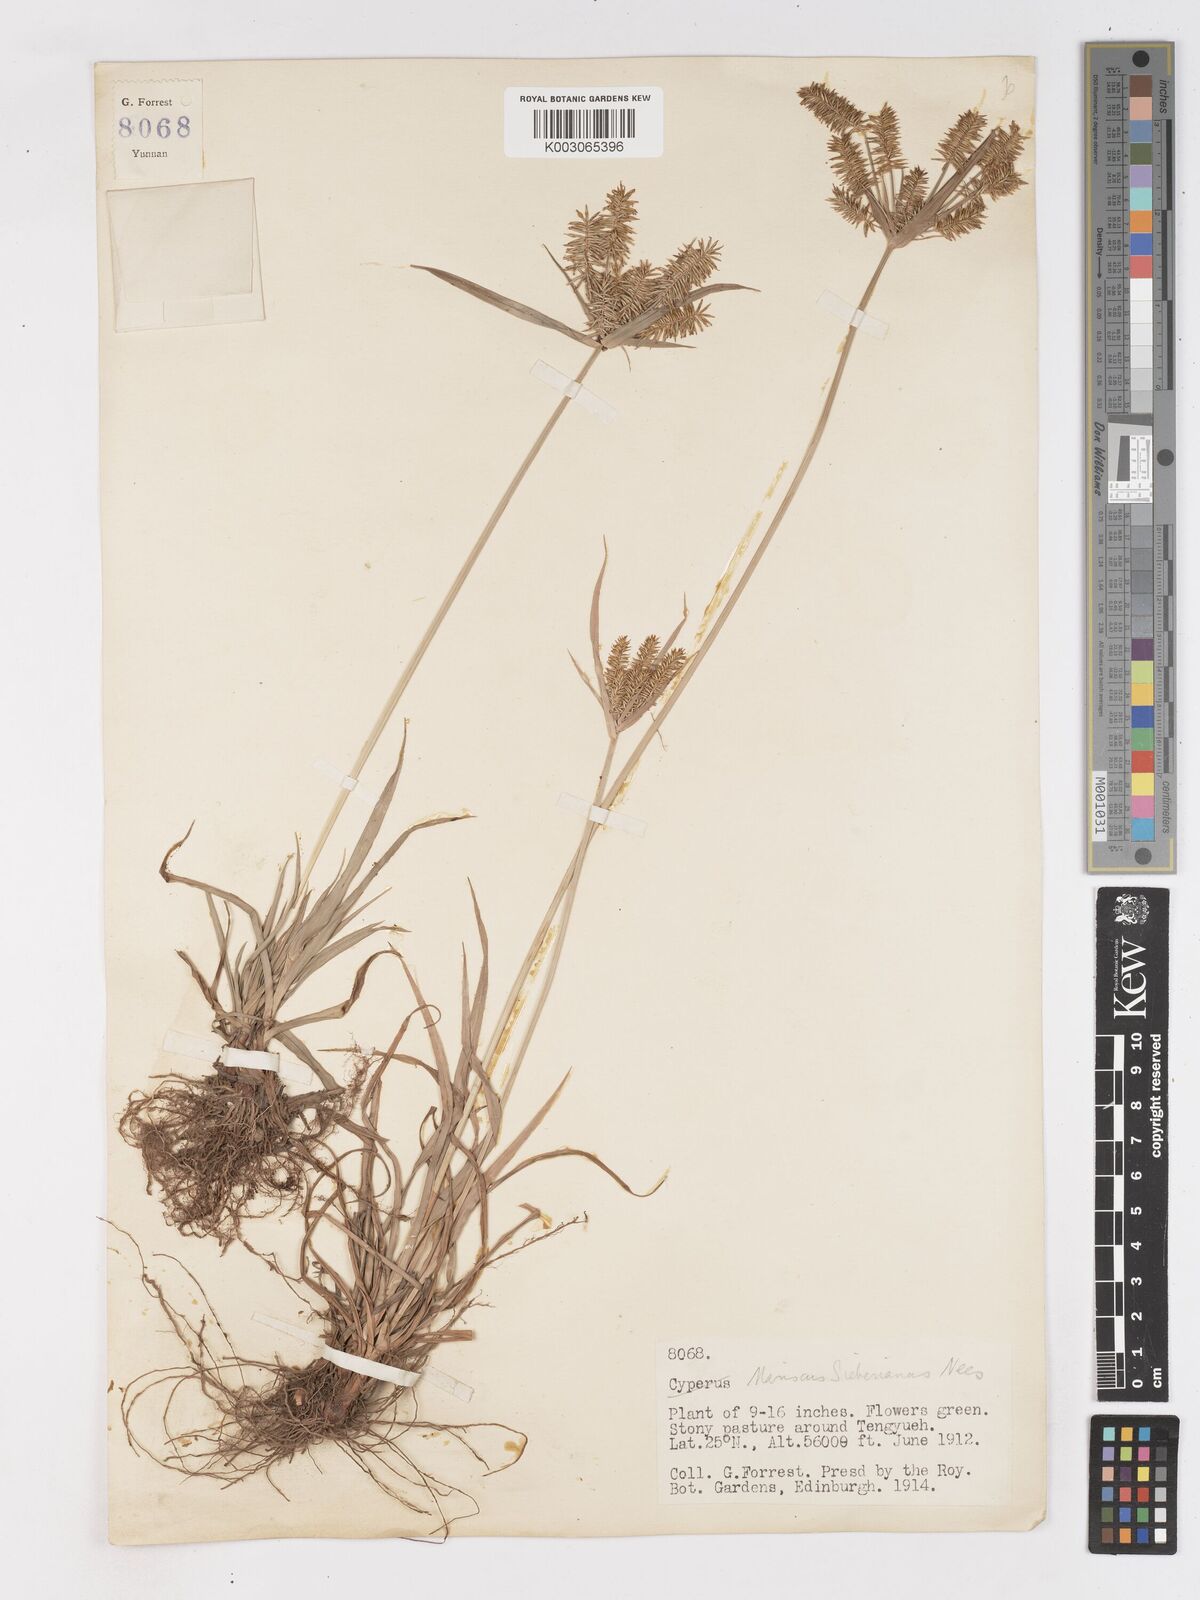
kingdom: Plantae
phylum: Tracheophyta
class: Liliopsida
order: Poales
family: Cyperaceae
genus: Cyperus
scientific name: Cyperus cyperoides
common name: Pacific island flat sedge
